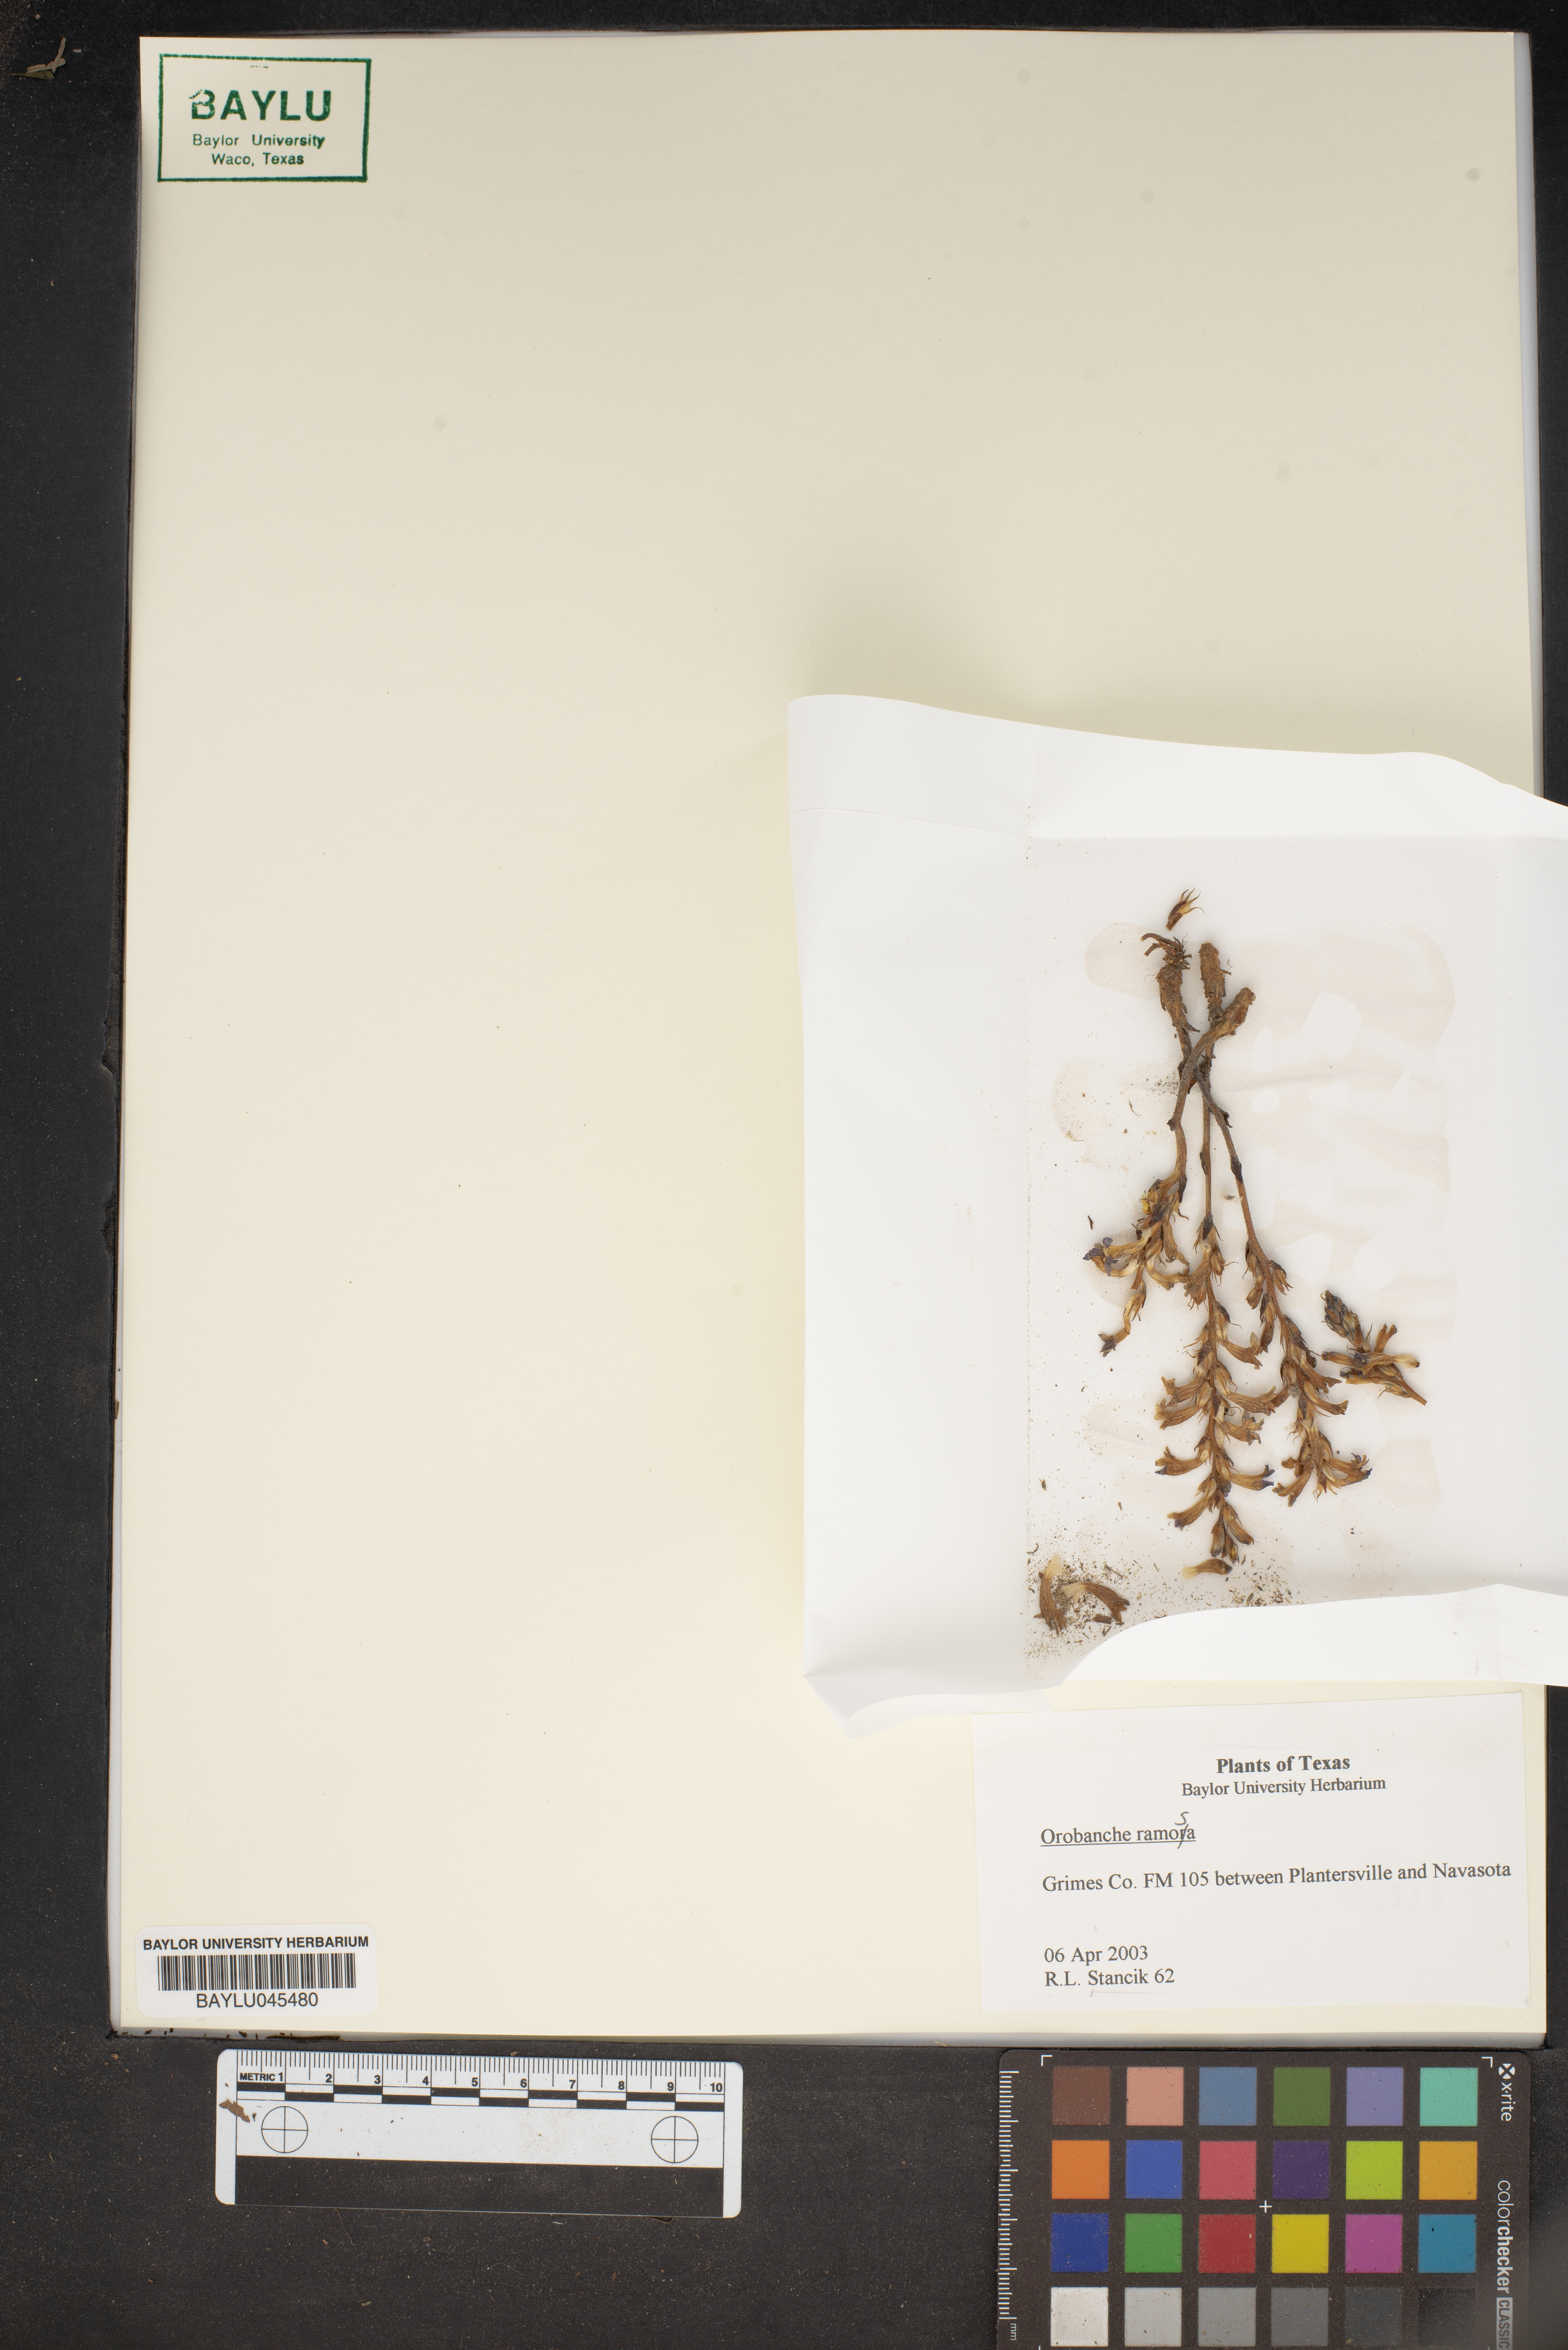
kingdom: Plantae
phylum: Tracheophyta
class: Magnoliopsida
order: Lamiales
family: Orobanchaceae
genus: Phelipanche
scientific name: Phelipanche ramosa
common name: Branched broomrape
